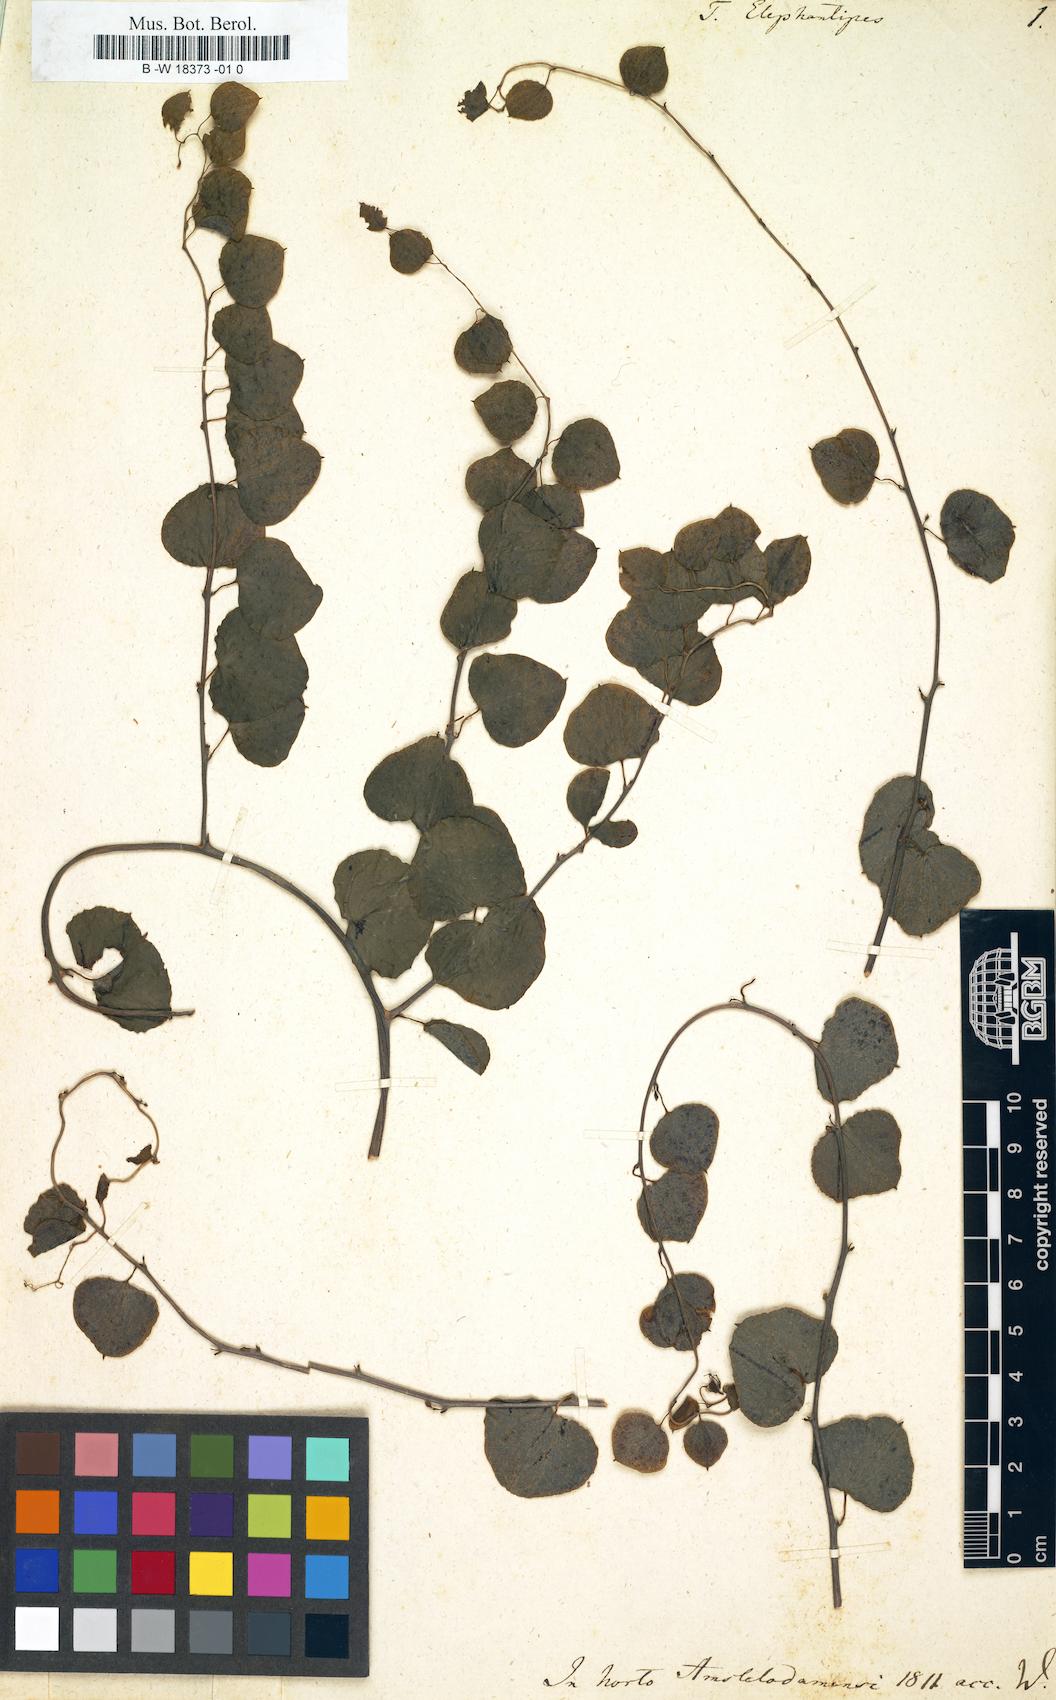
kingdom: Plantae
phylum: Tracheophyta
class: Liliopsida
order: Dioscoreales
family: Dioscoreaceae
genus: Dioscorea
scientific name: Dioscorea elephantipes
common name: Elephant's foot yam
